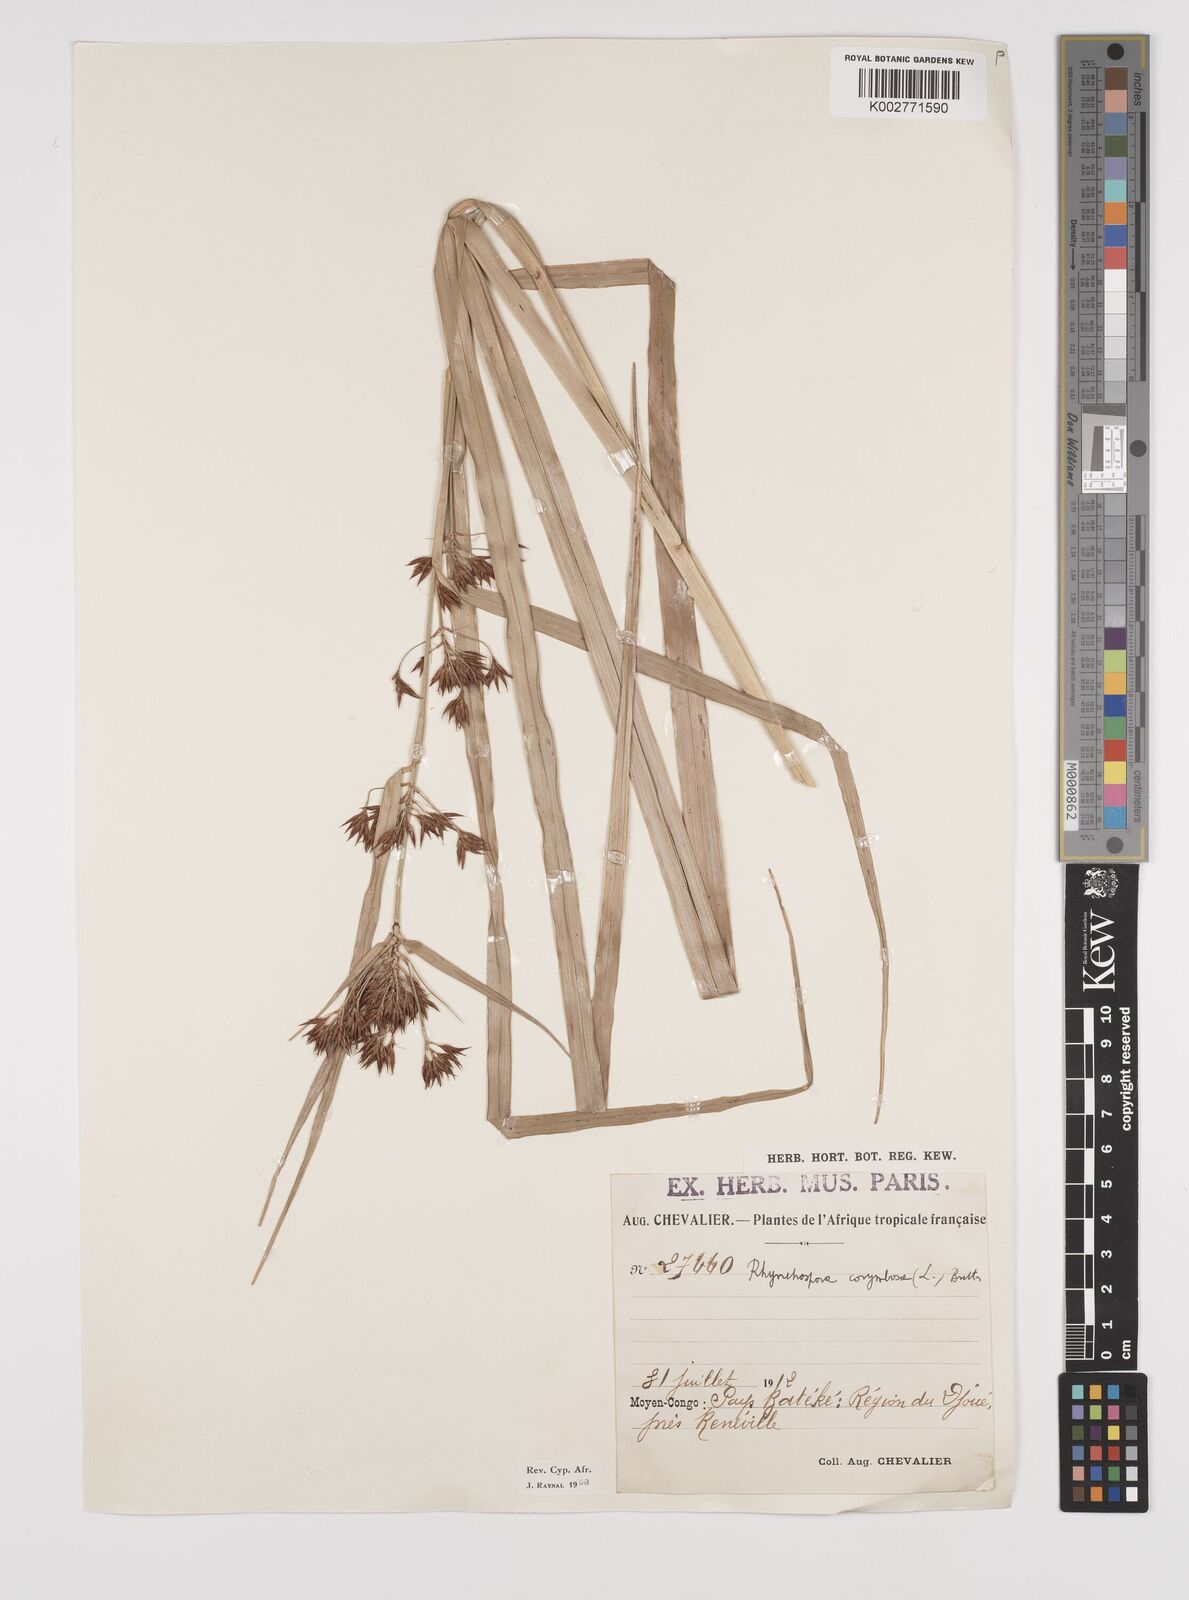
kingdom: Plantae
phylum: Tracheophyta
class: Liliopsida
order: Poales
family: Cyperaceae
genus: Rhynchospora
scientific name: Rhynchospora corymbosa
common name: Golden beak sedge
